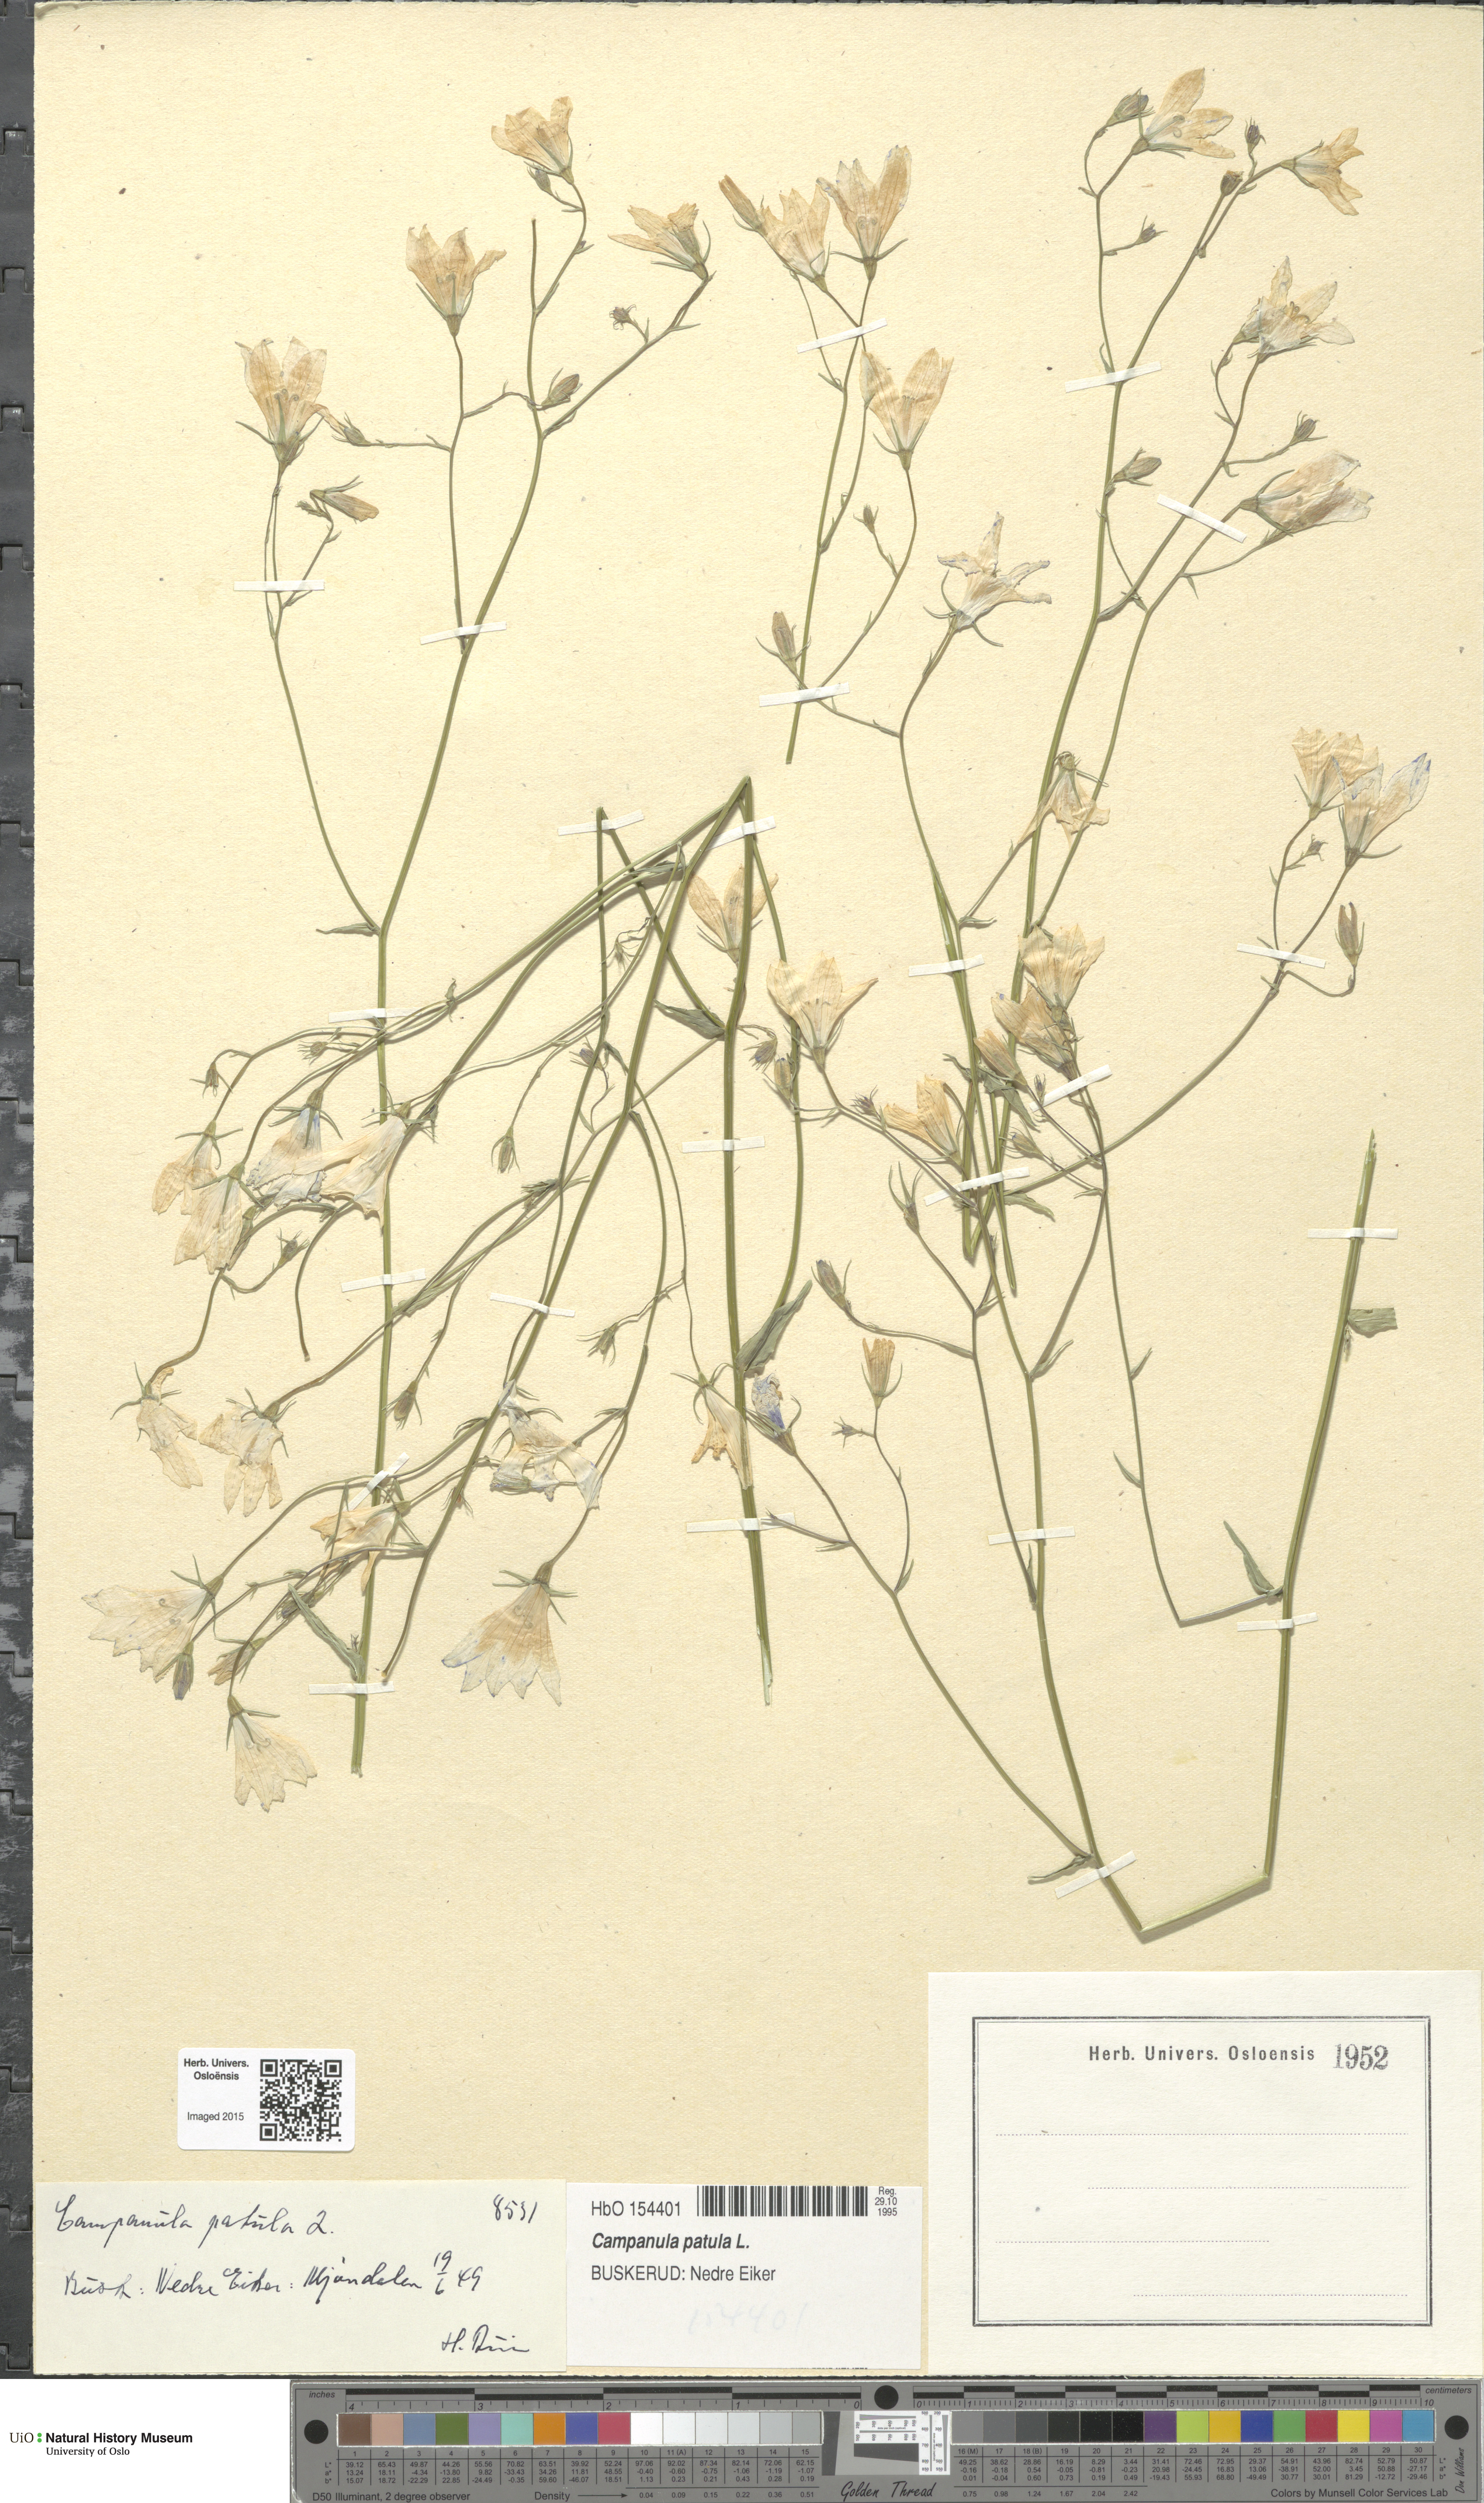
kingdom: Plantae
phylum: Tracheophyta
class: Magnoliopsida
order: Asterales
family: Campanulaceae
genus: Campanula
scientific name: Campanula patula
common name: Spreading bellflower
